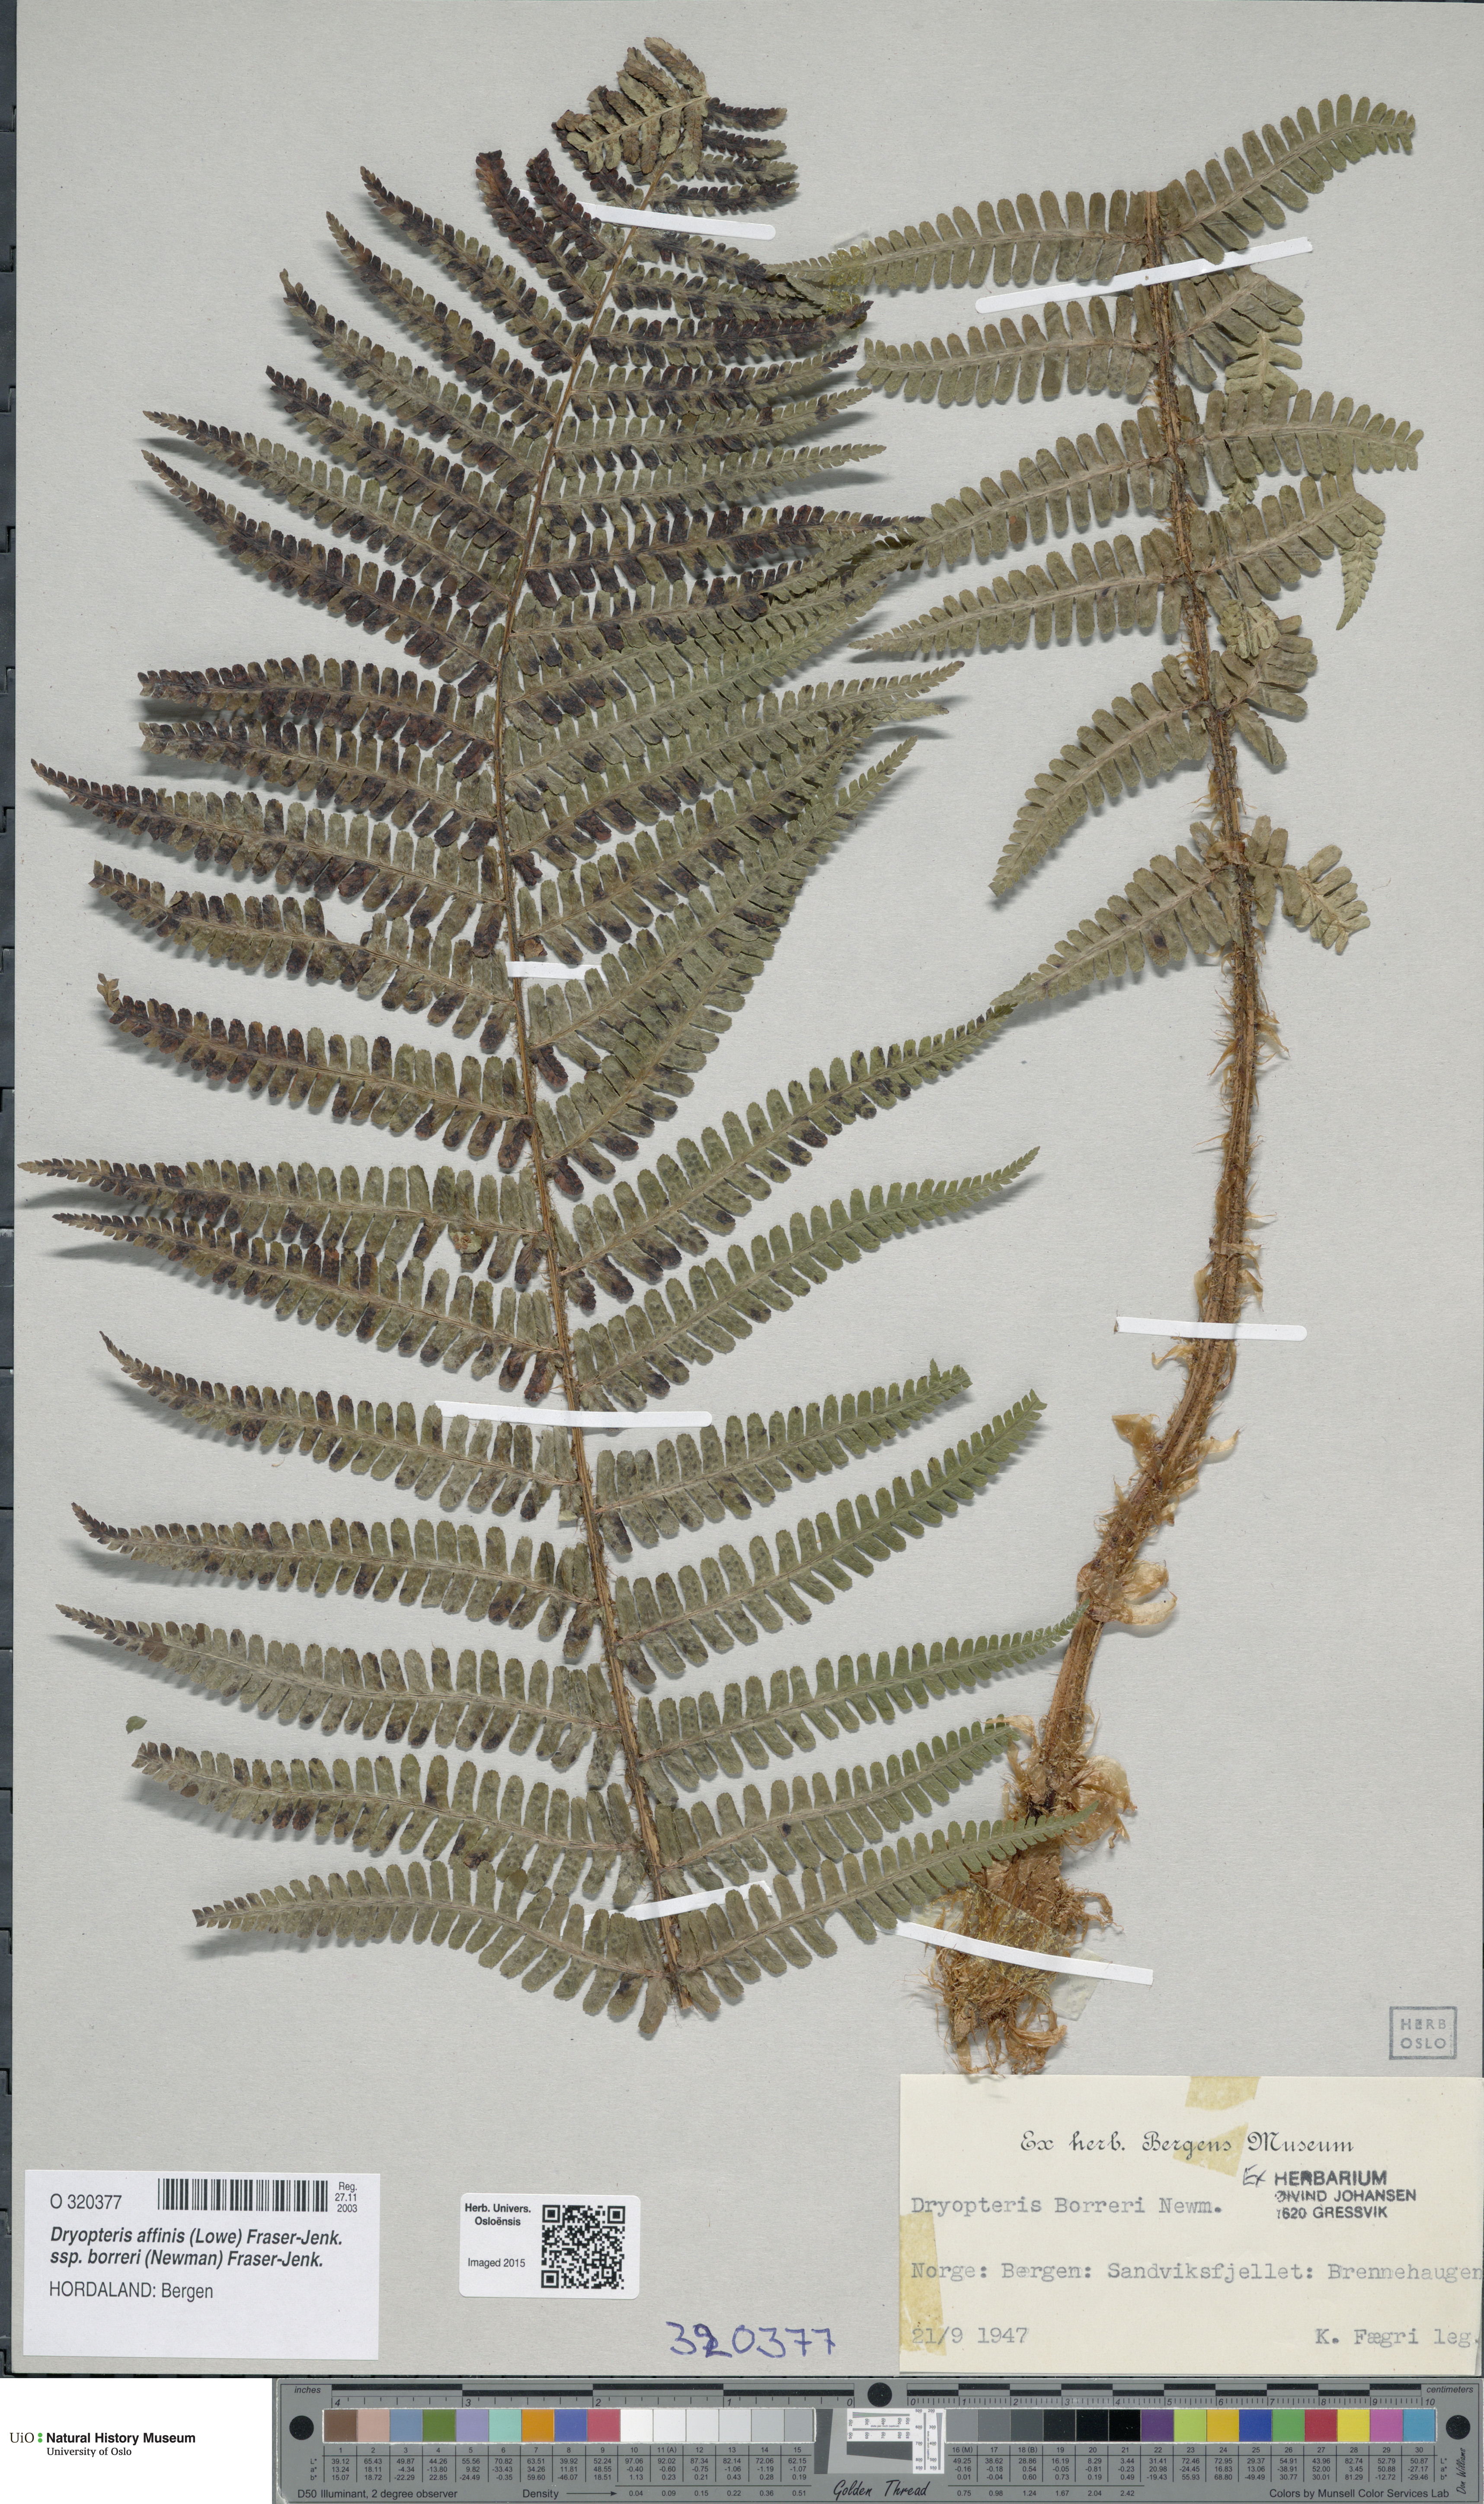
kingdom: Plantae
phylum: Tracheophyta
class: Polypodiopsida
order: Polypodiales
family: Dryopteridaceae
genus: Dryopteris
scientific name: Dryopteris borreri
